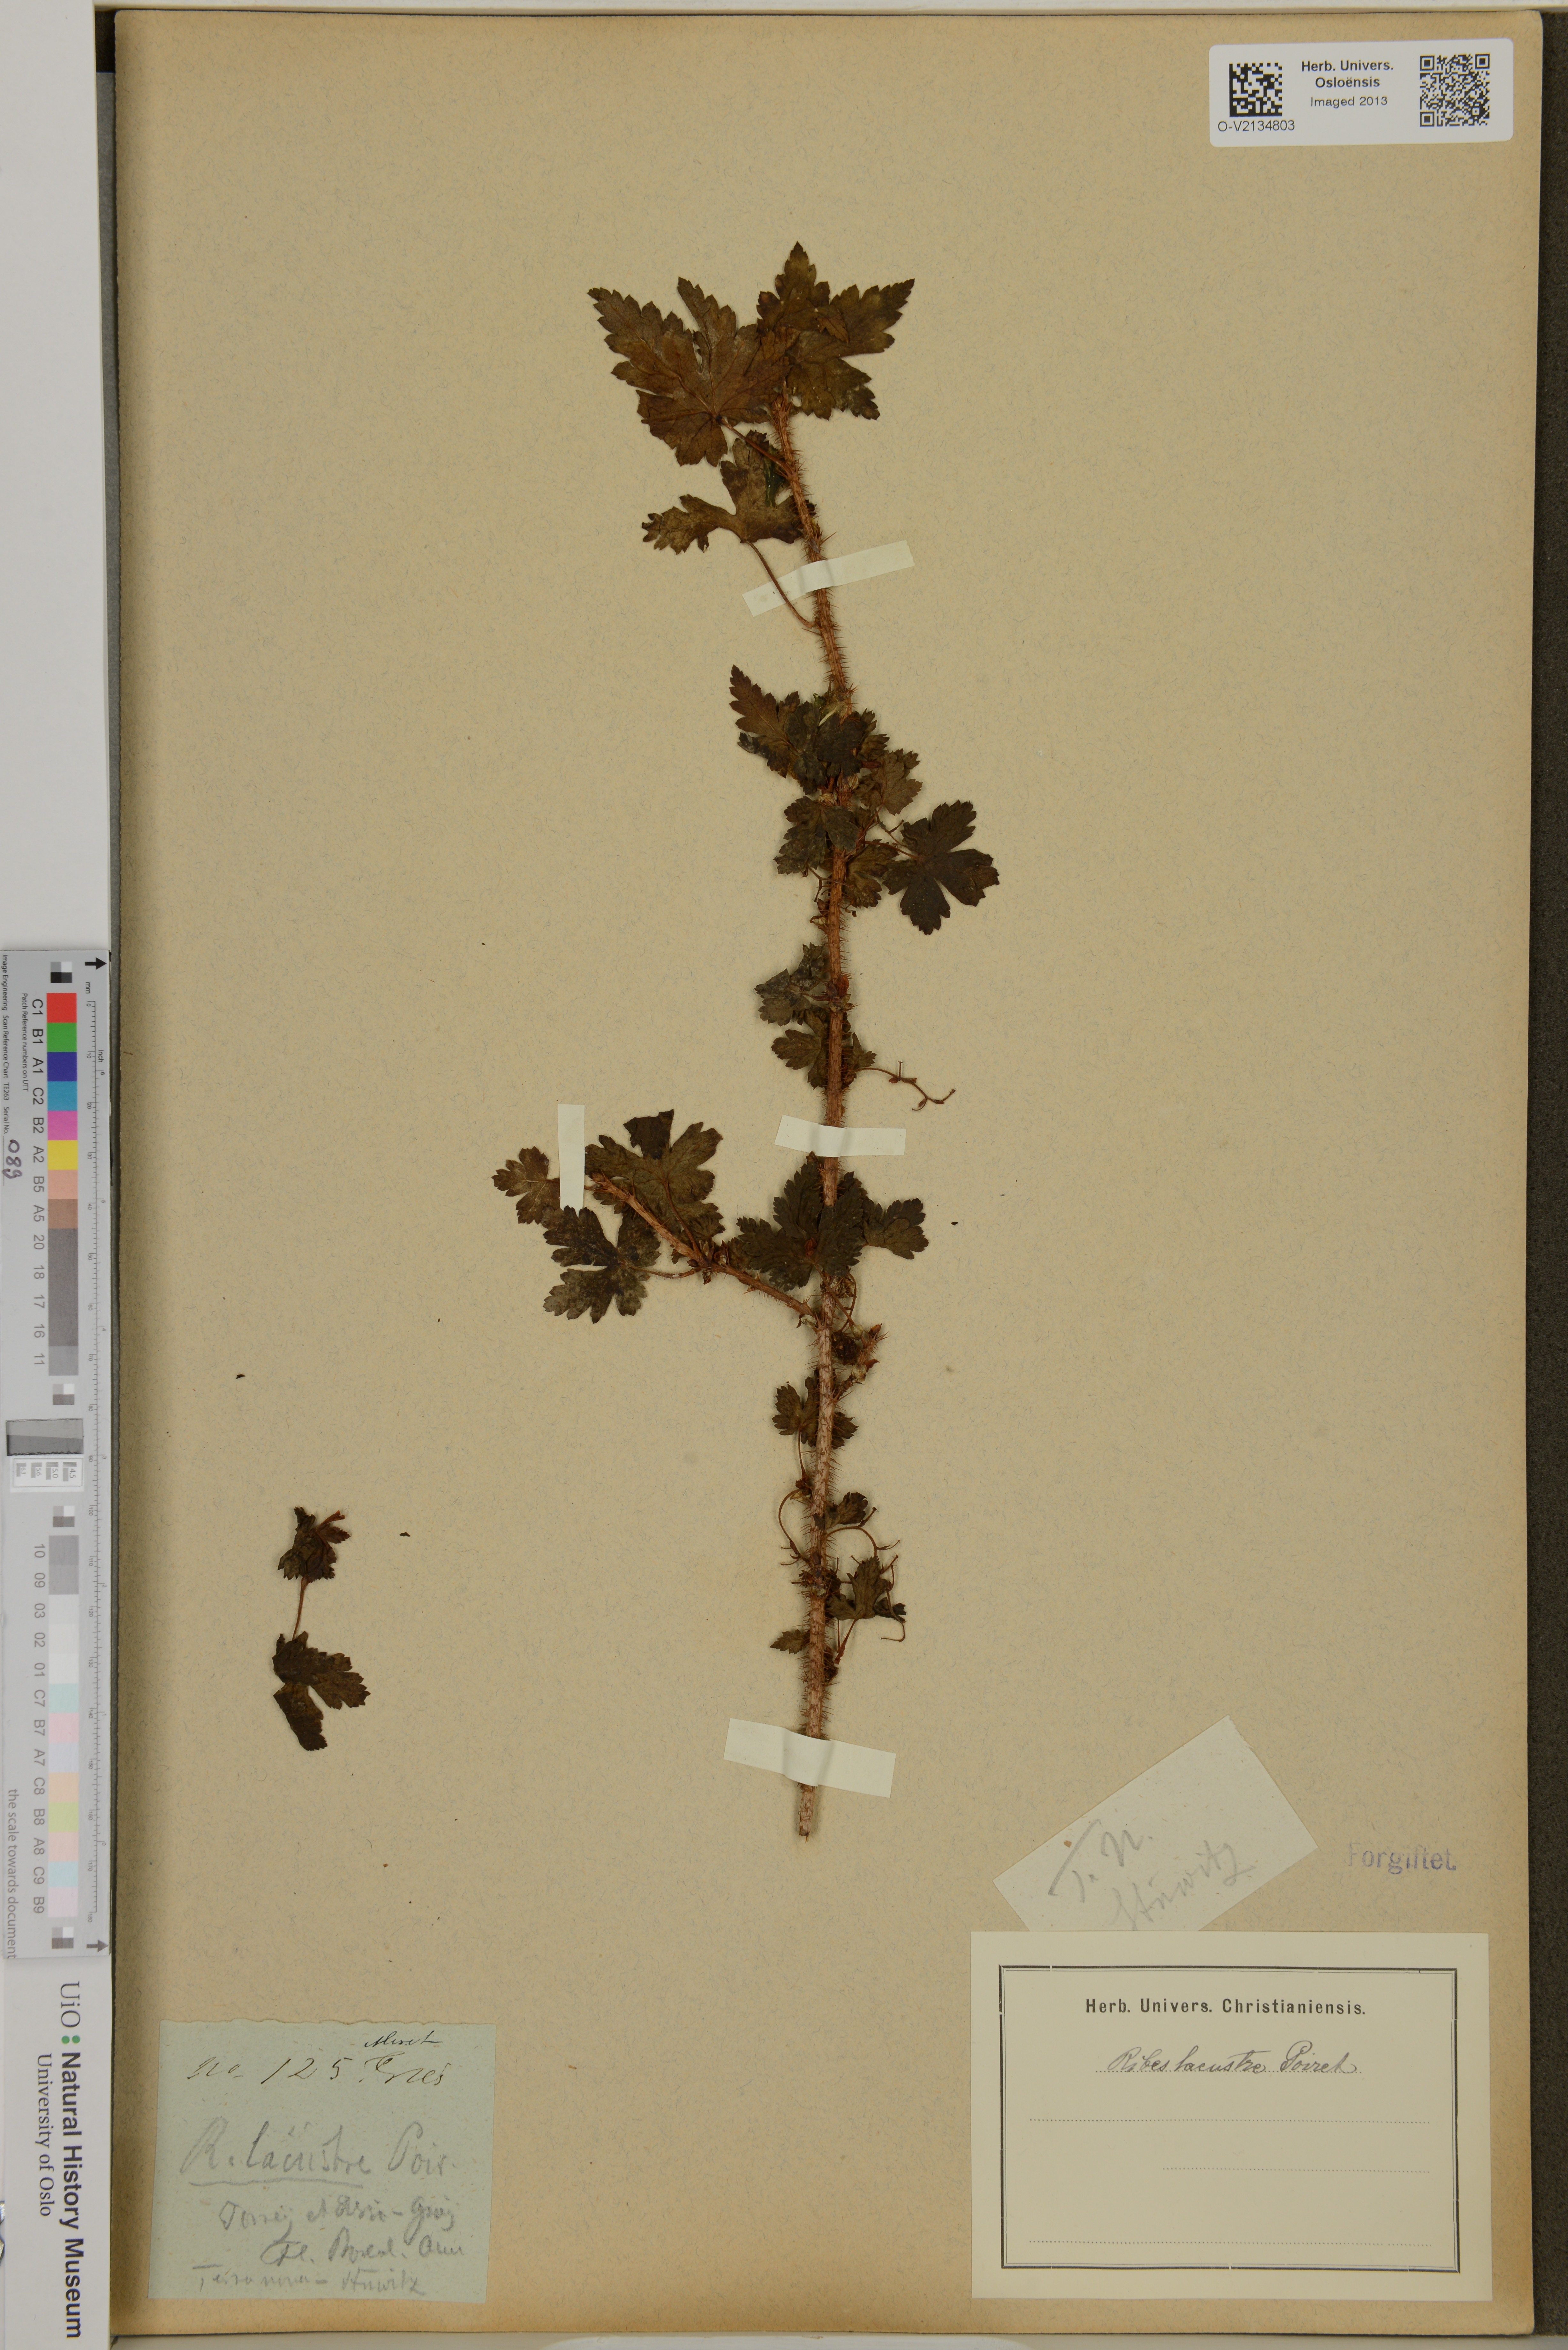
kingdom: Plantae
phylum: Tracheophyta
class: Magnoliopsida
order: Saxifragales
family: Grossulariaceae
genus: Ribes
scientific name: Ribes lacustre
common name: Black gooseberry
